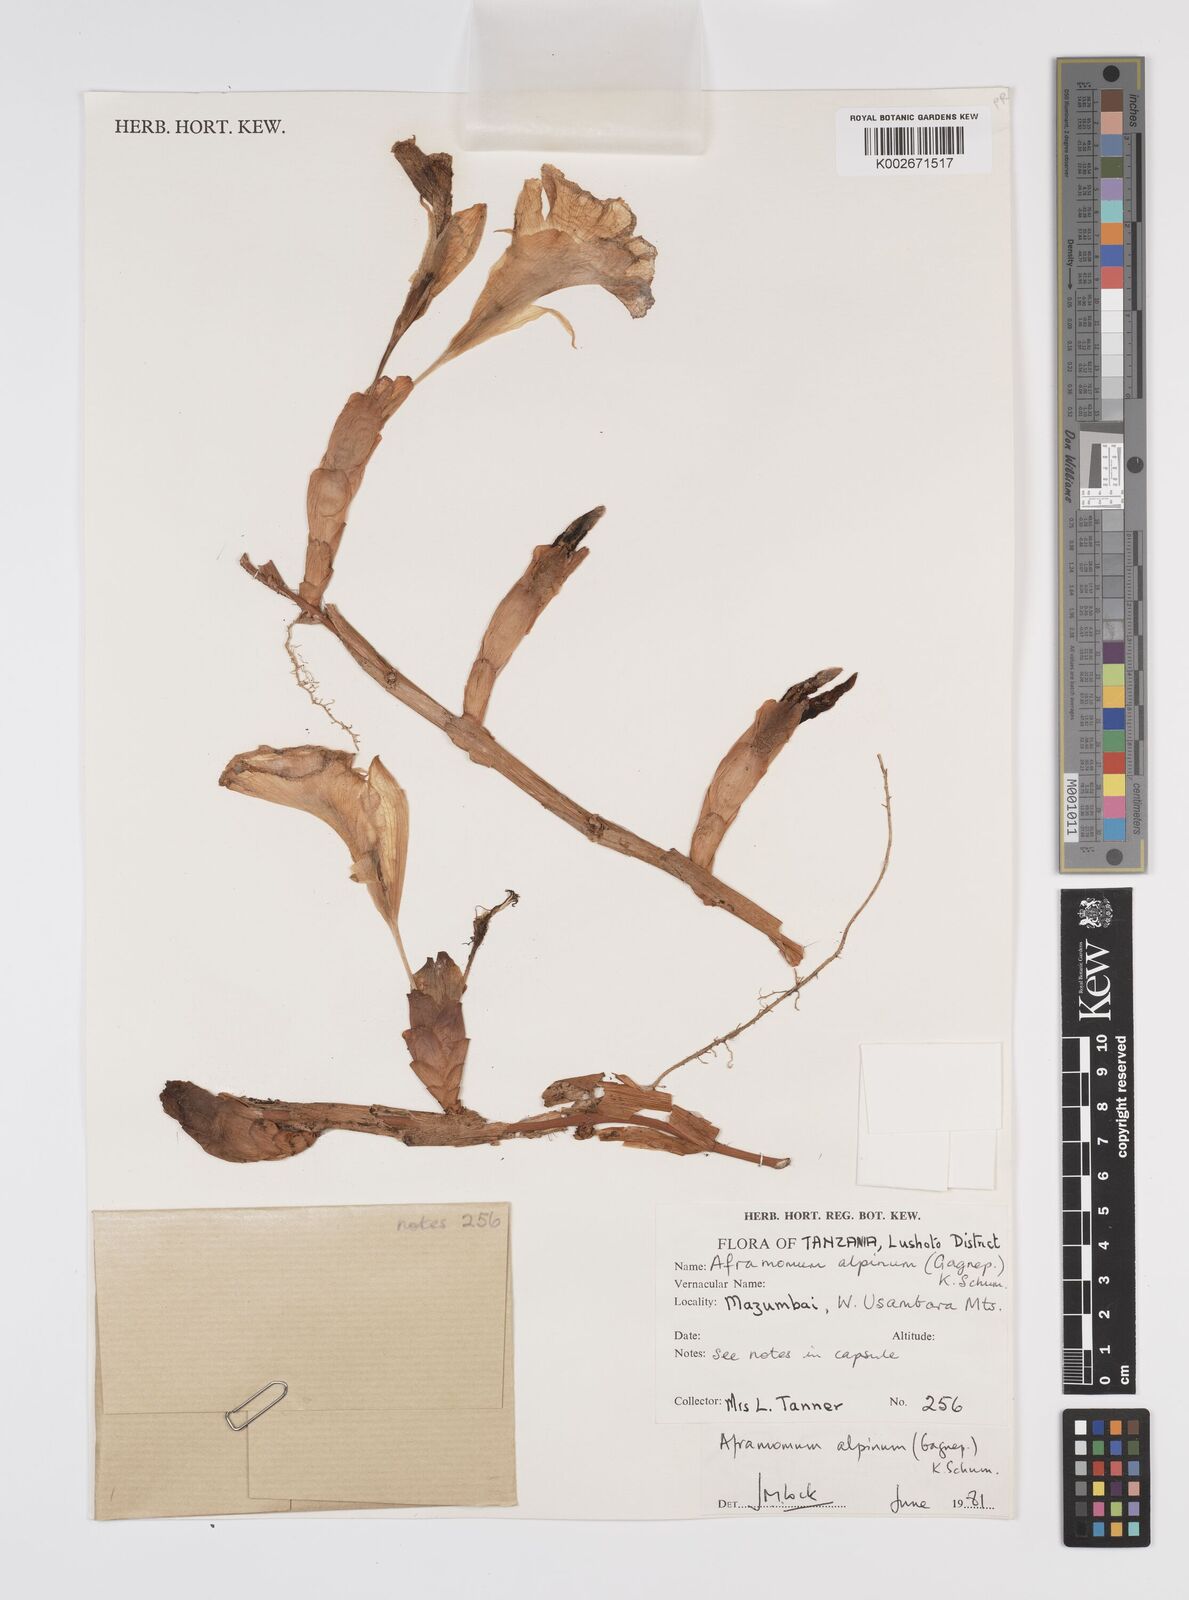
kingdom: Plantae
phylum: Tracheophyta
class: Liliopsida
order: Zingiberales
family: Zingiberaceae
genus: Aframomum
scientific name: Aframomum alpinum
